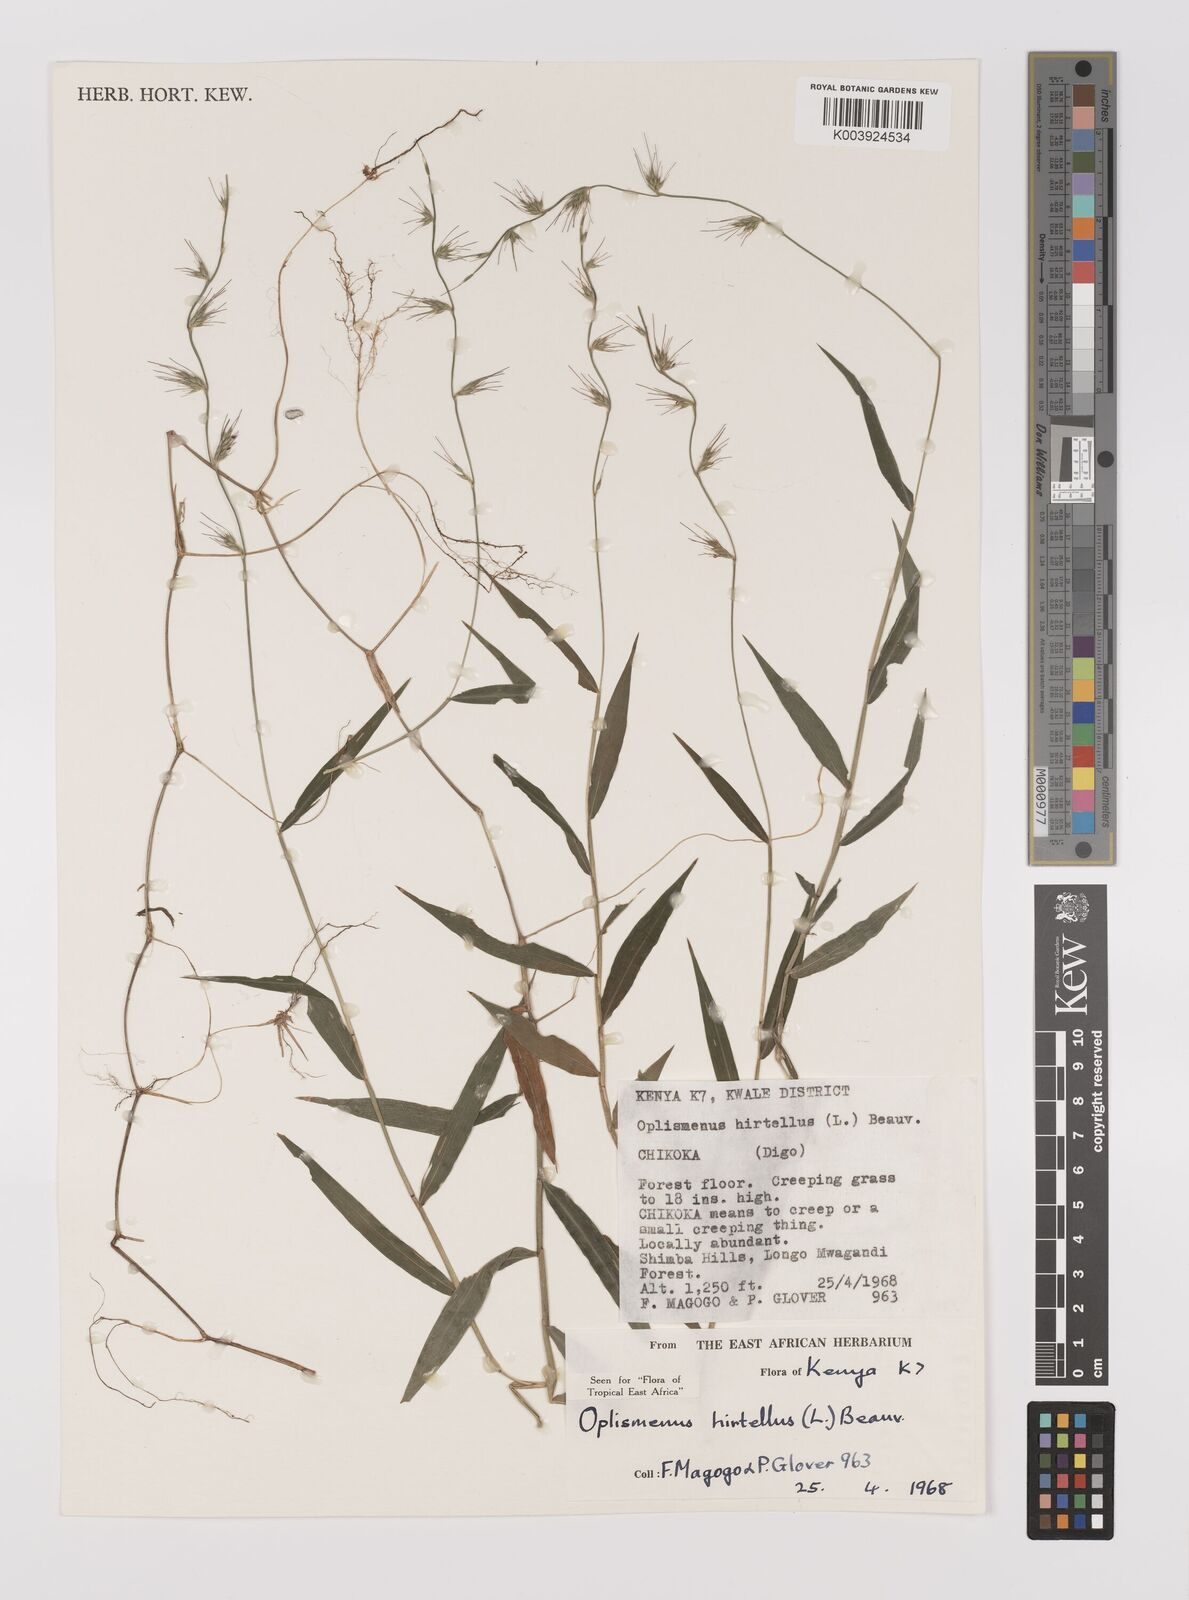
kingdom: Plantae
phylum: Tracheophyta
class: Liliopsida
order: Poales
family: Poaceae
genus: Oplismenus
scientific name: Oplismenus hirtellus
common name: Basketgrass
